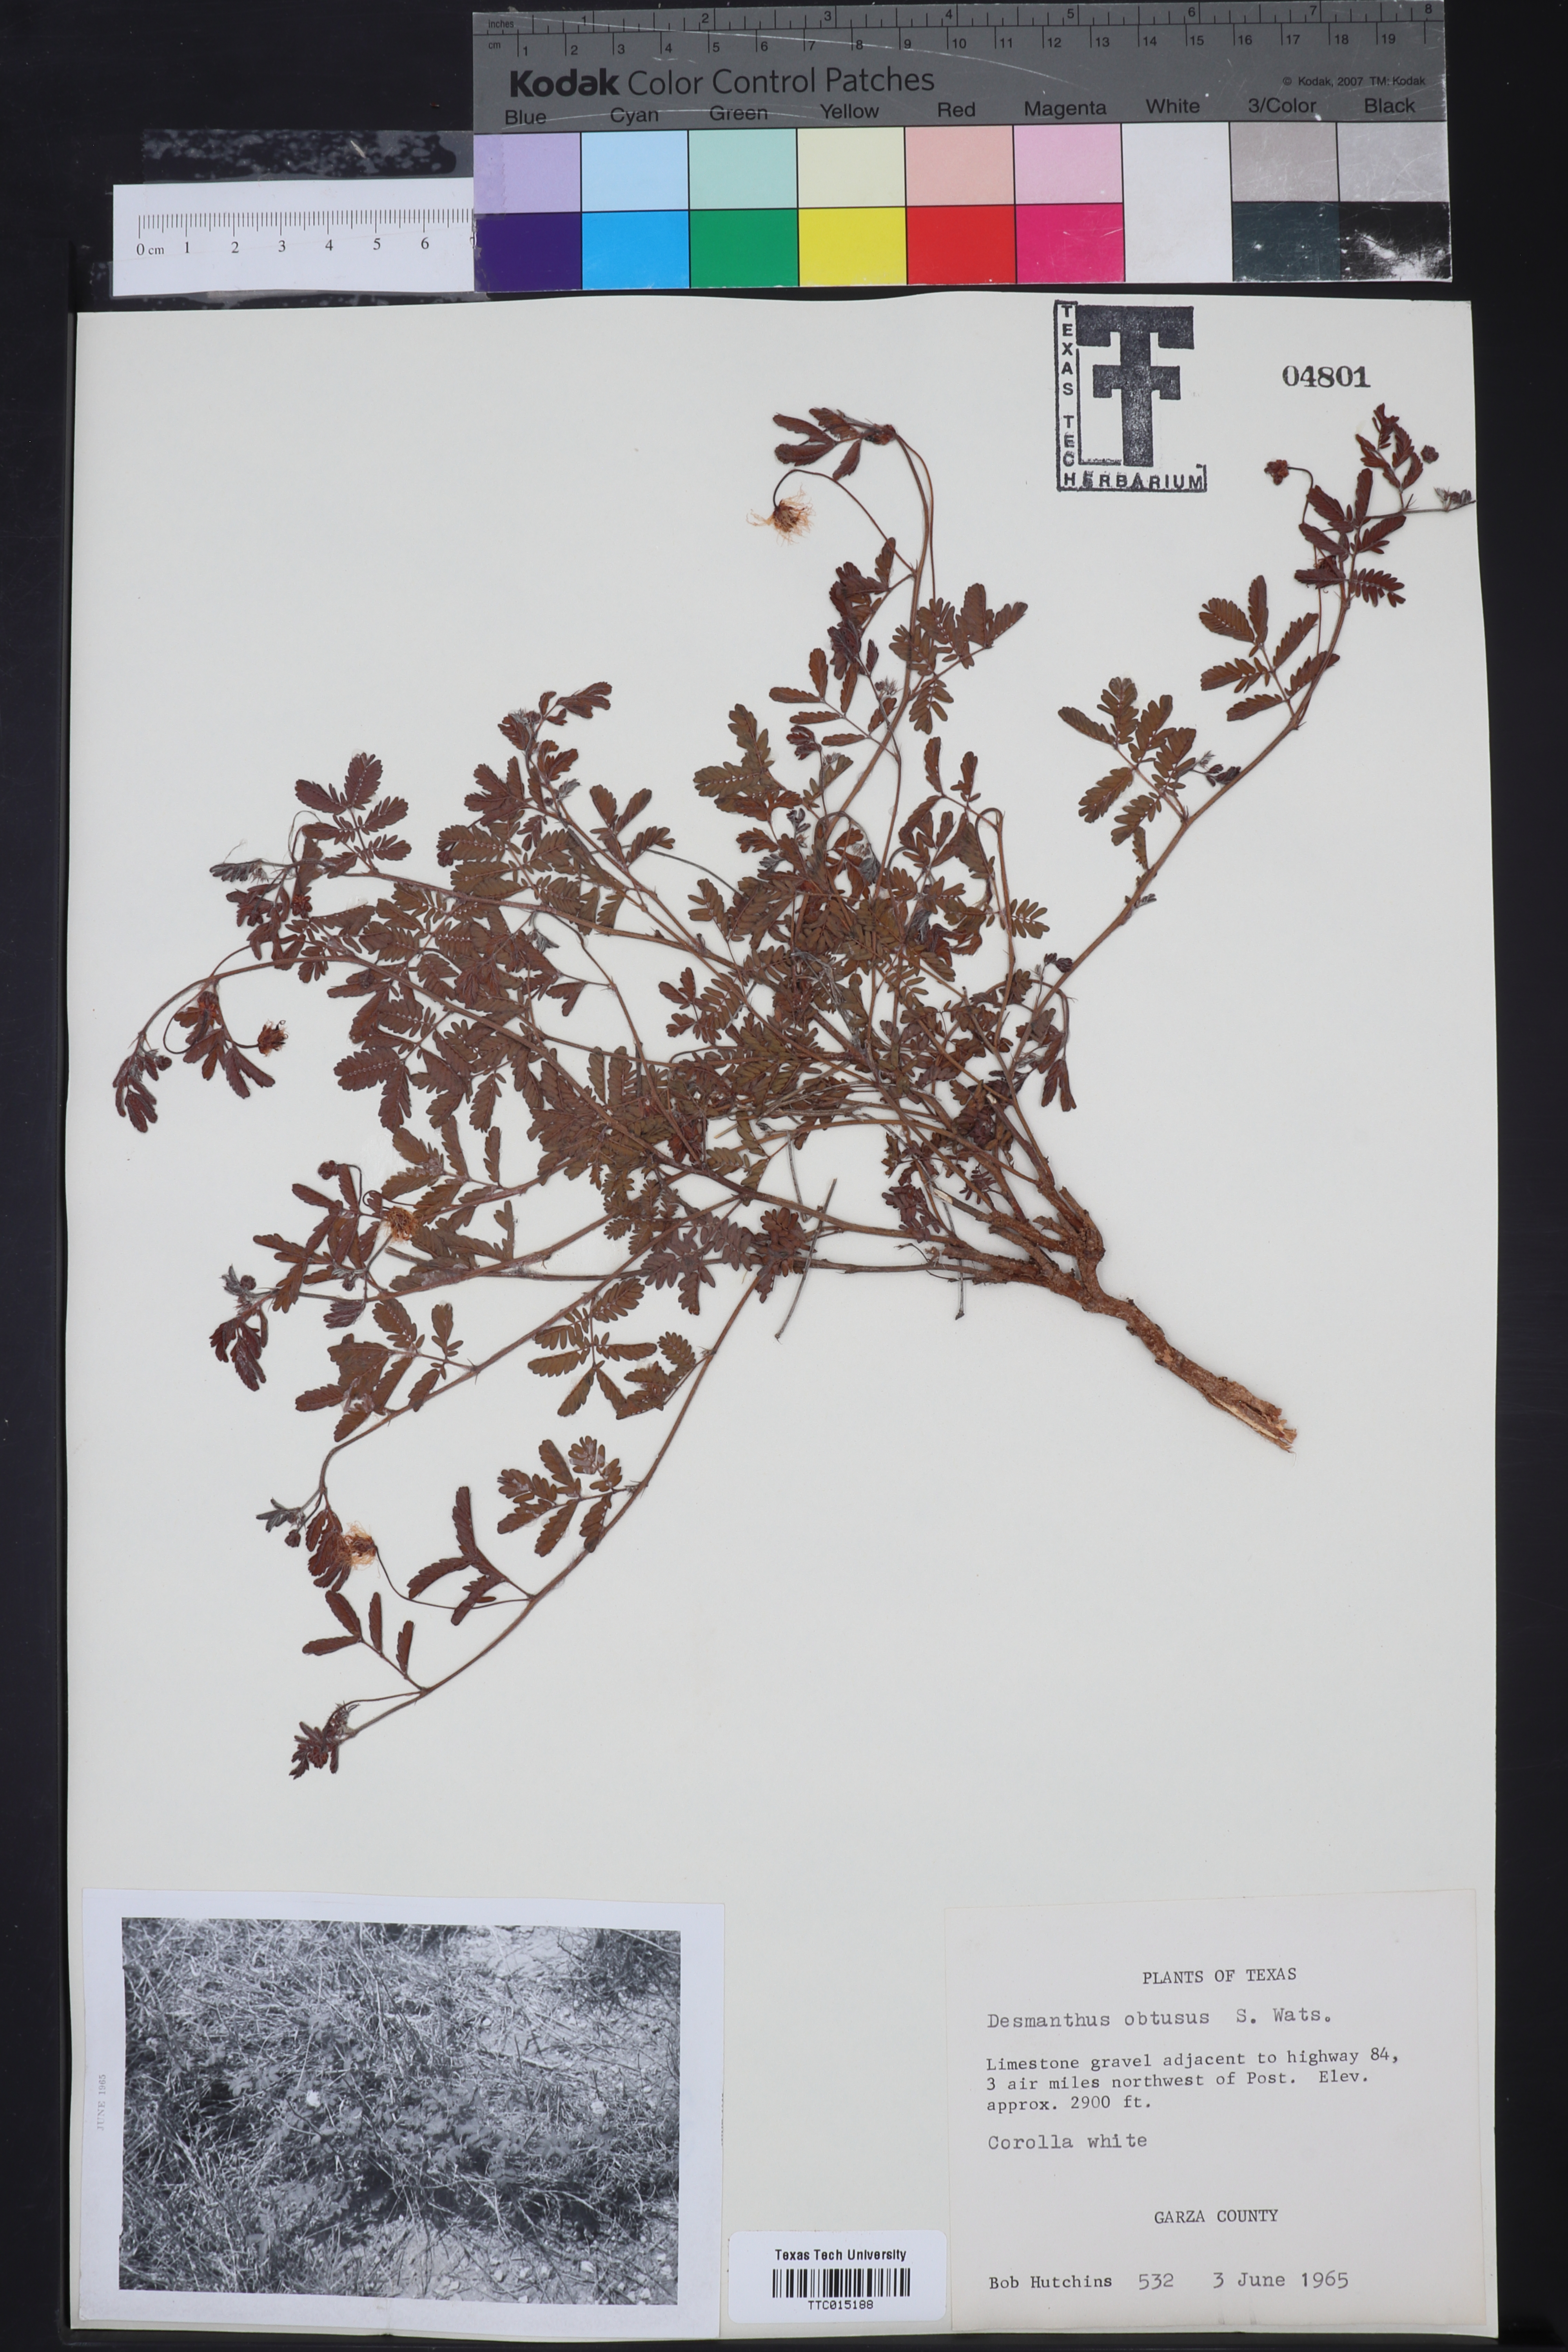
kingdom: Plantae
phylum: Tracheophyta
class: Magnoliopsida
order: Fabales
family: Fabaceae
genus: Desmanthus
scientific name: Desmanthus obtusus
